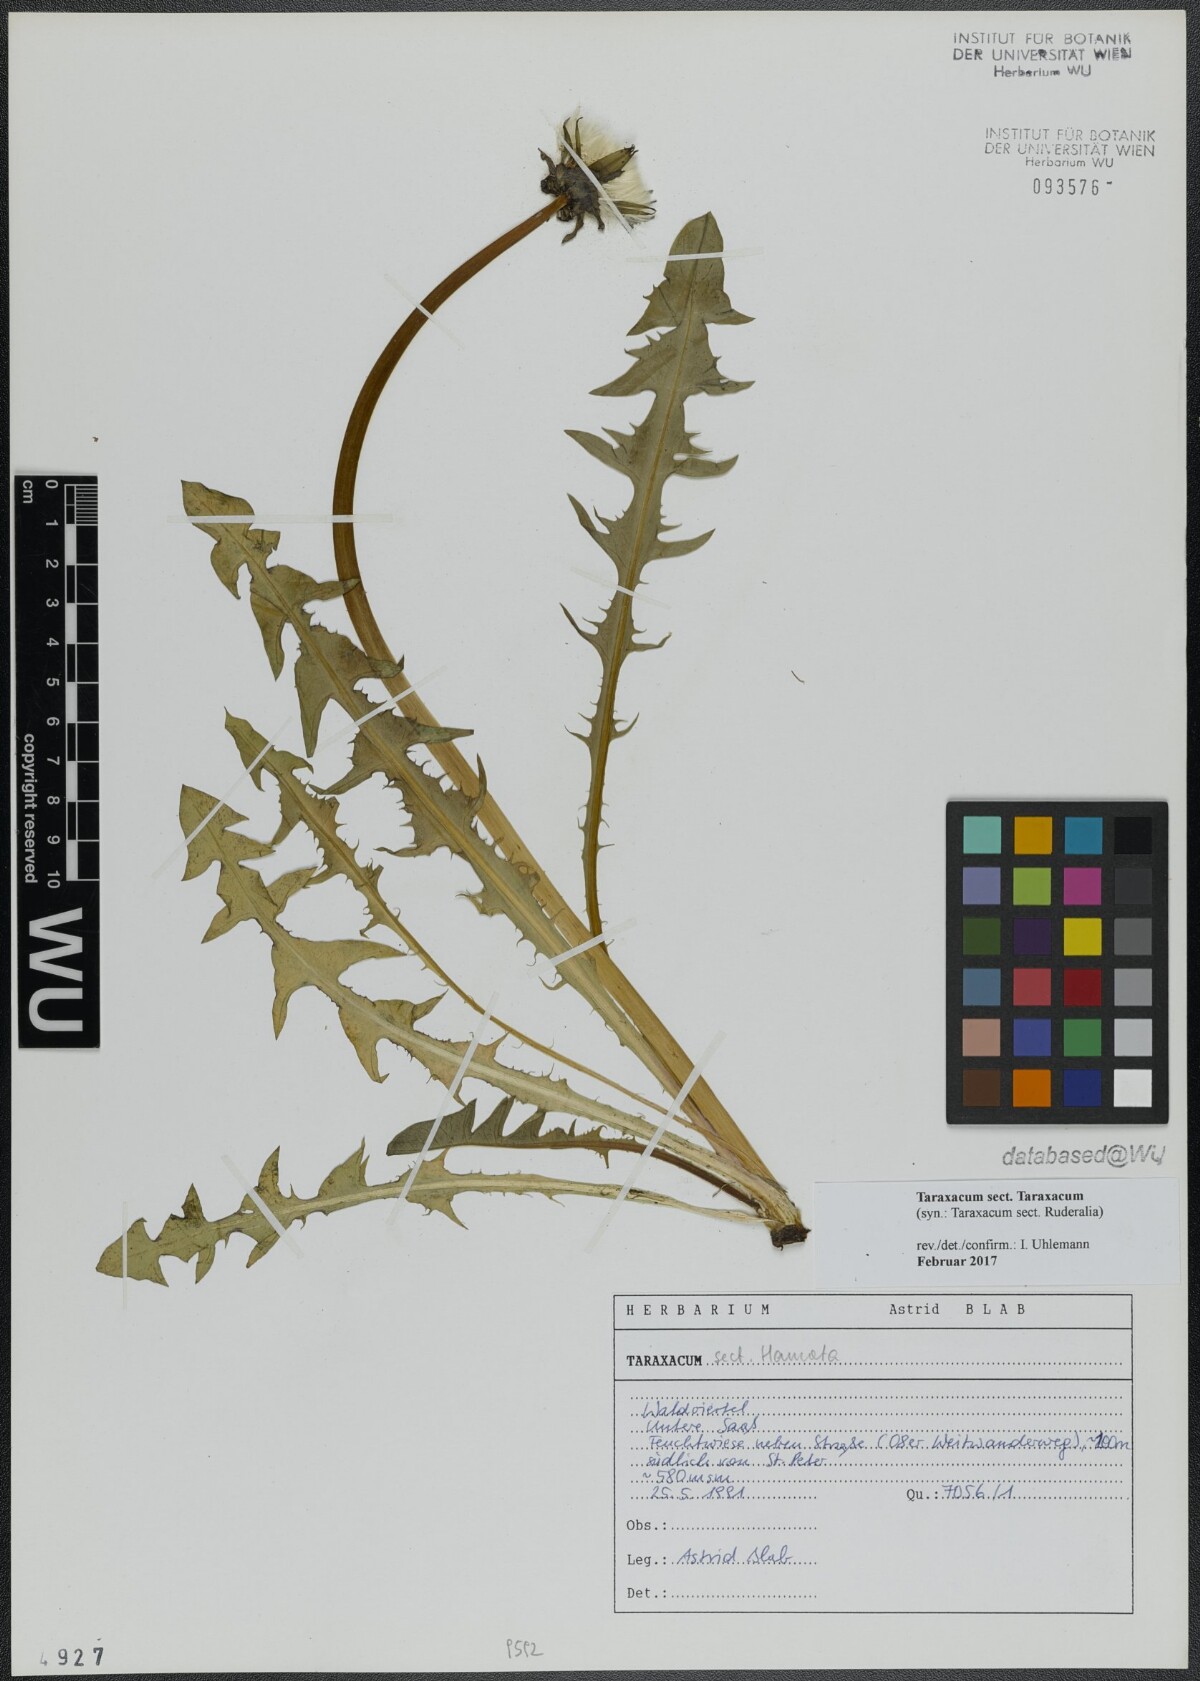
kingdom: Plantae
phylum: Tracheophyta
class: Magnoliopsida
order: Asterales
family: Asteraceae
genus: Taraxacum
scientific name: Taraxacum
